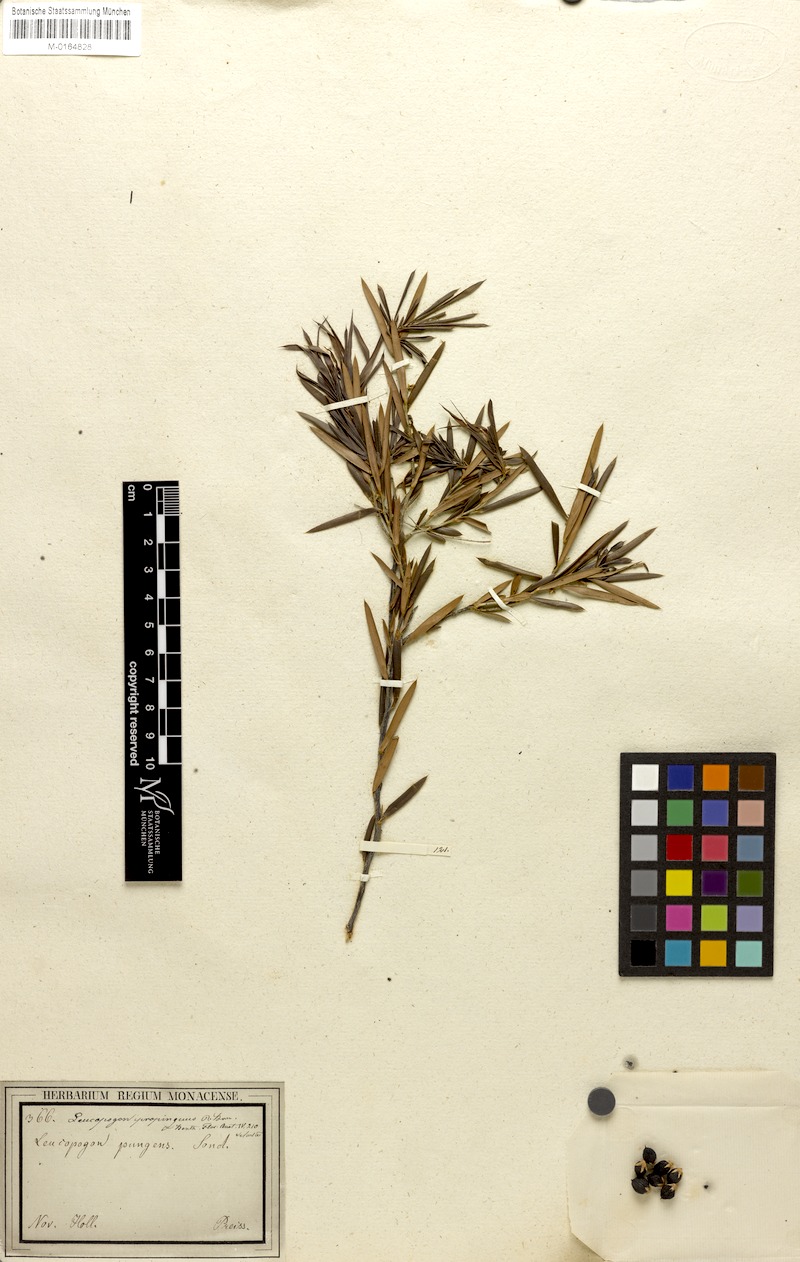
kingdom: Plantae
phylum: Tracheophyta
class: Magnoliopsida
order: Ericales
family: Ericaceae
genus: Styphelia
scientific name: Styphelia propinqua
